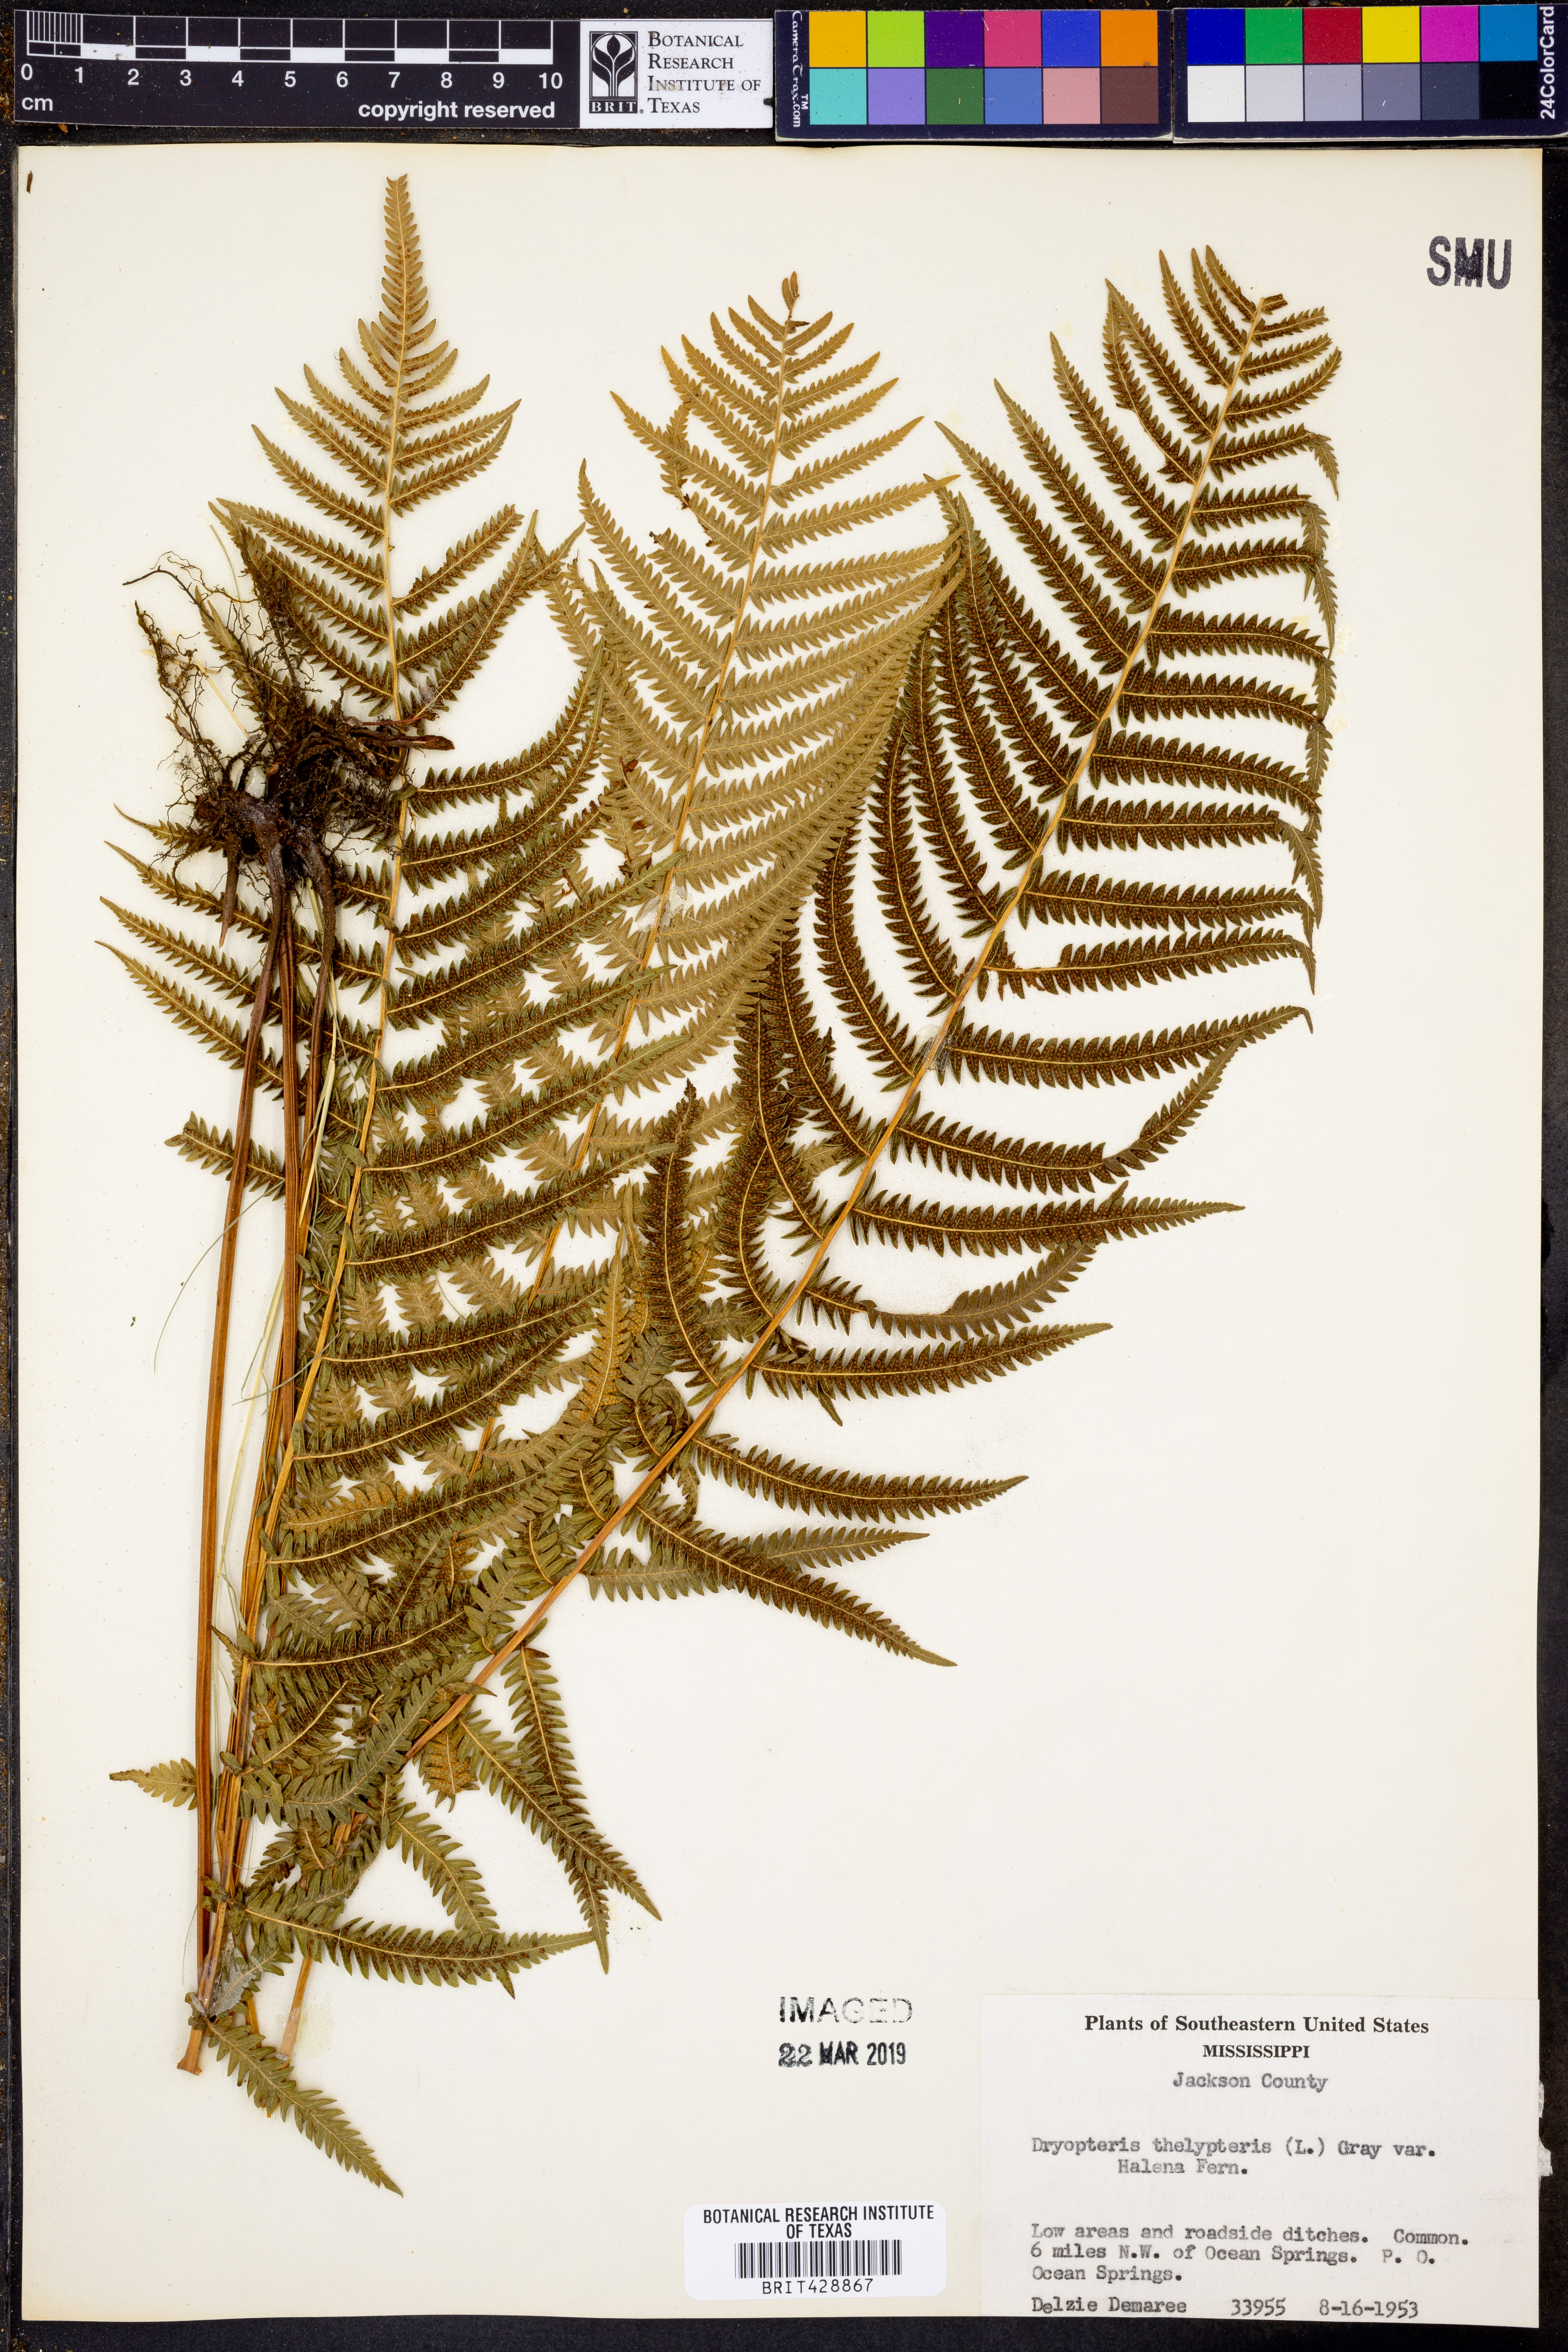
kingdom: Plantae
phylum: Tracheophyta
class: Polypodiopsida
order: Polypodiales
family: Thelypteridaceae
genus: Thelypteris
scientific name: Thelypteris palustris
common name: Marsh fern
